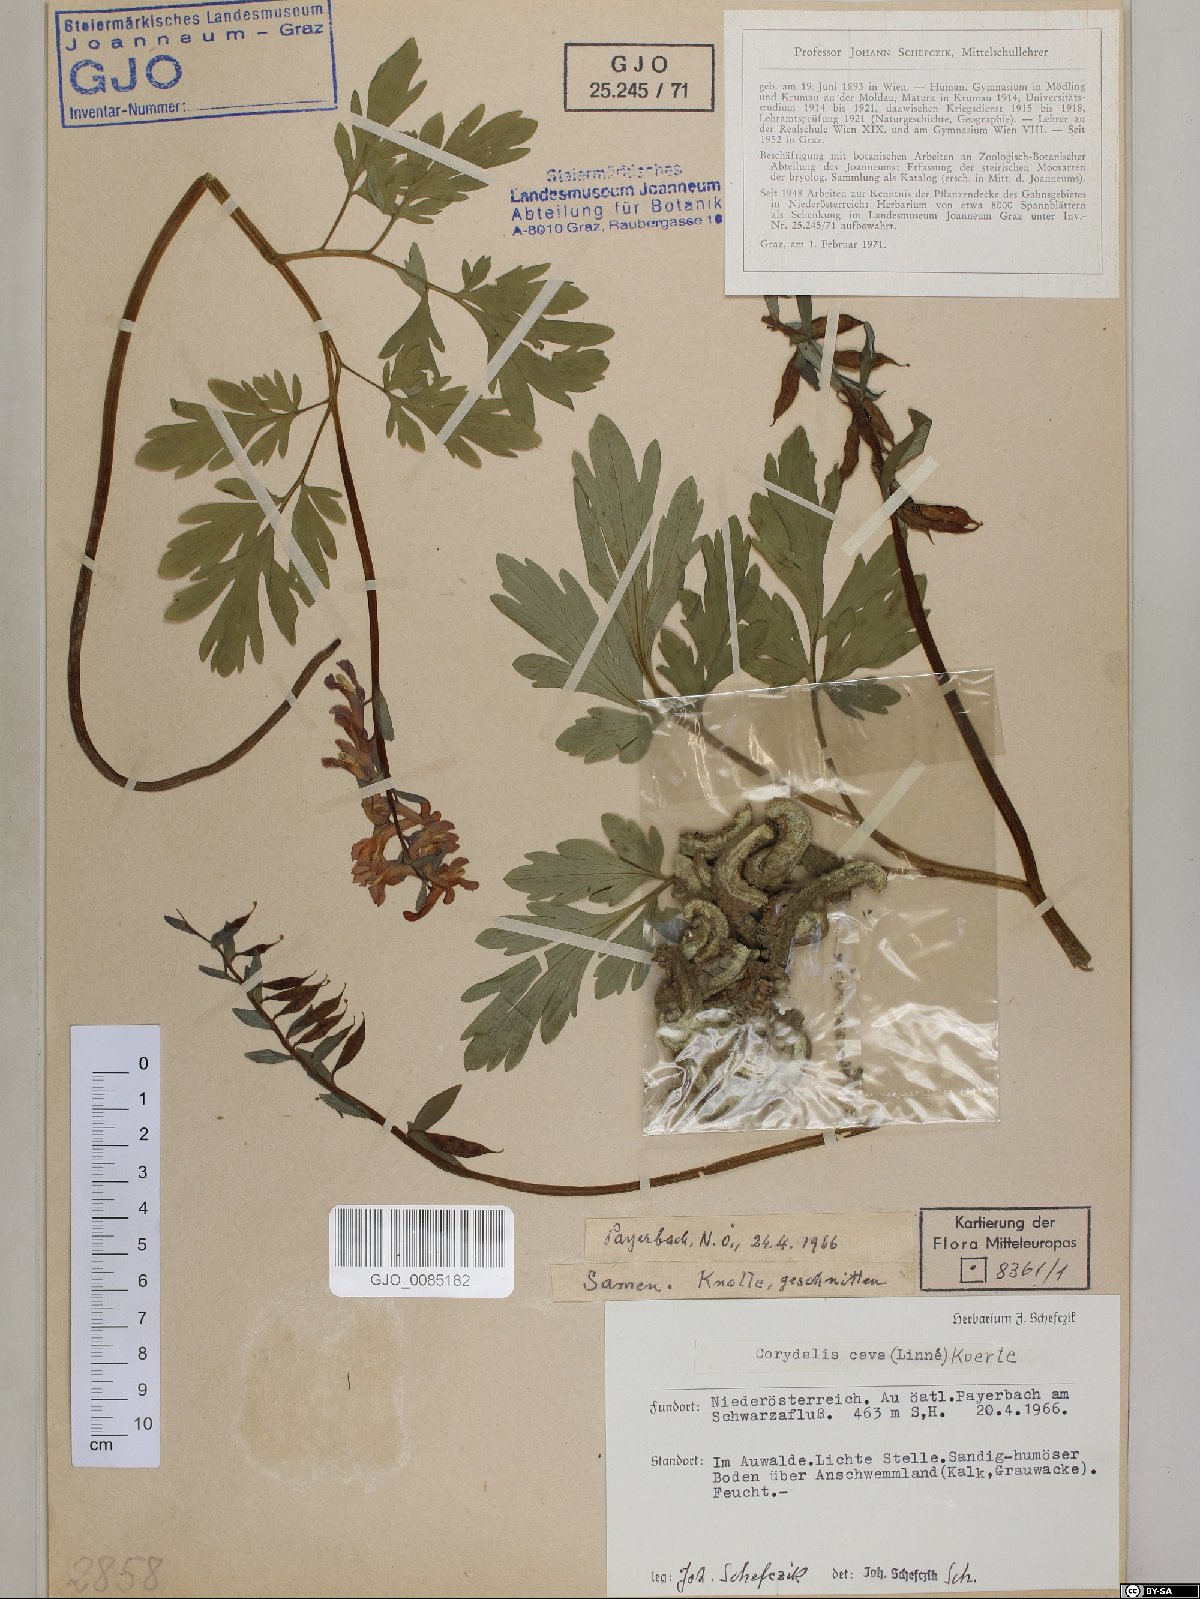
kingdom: Plantae
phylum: Tracheophyta
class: Magnoliopsida
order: Ranunculales
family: Papaveraceae
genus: Corydalis
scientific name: Corydalis cava
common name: Hollowroot
